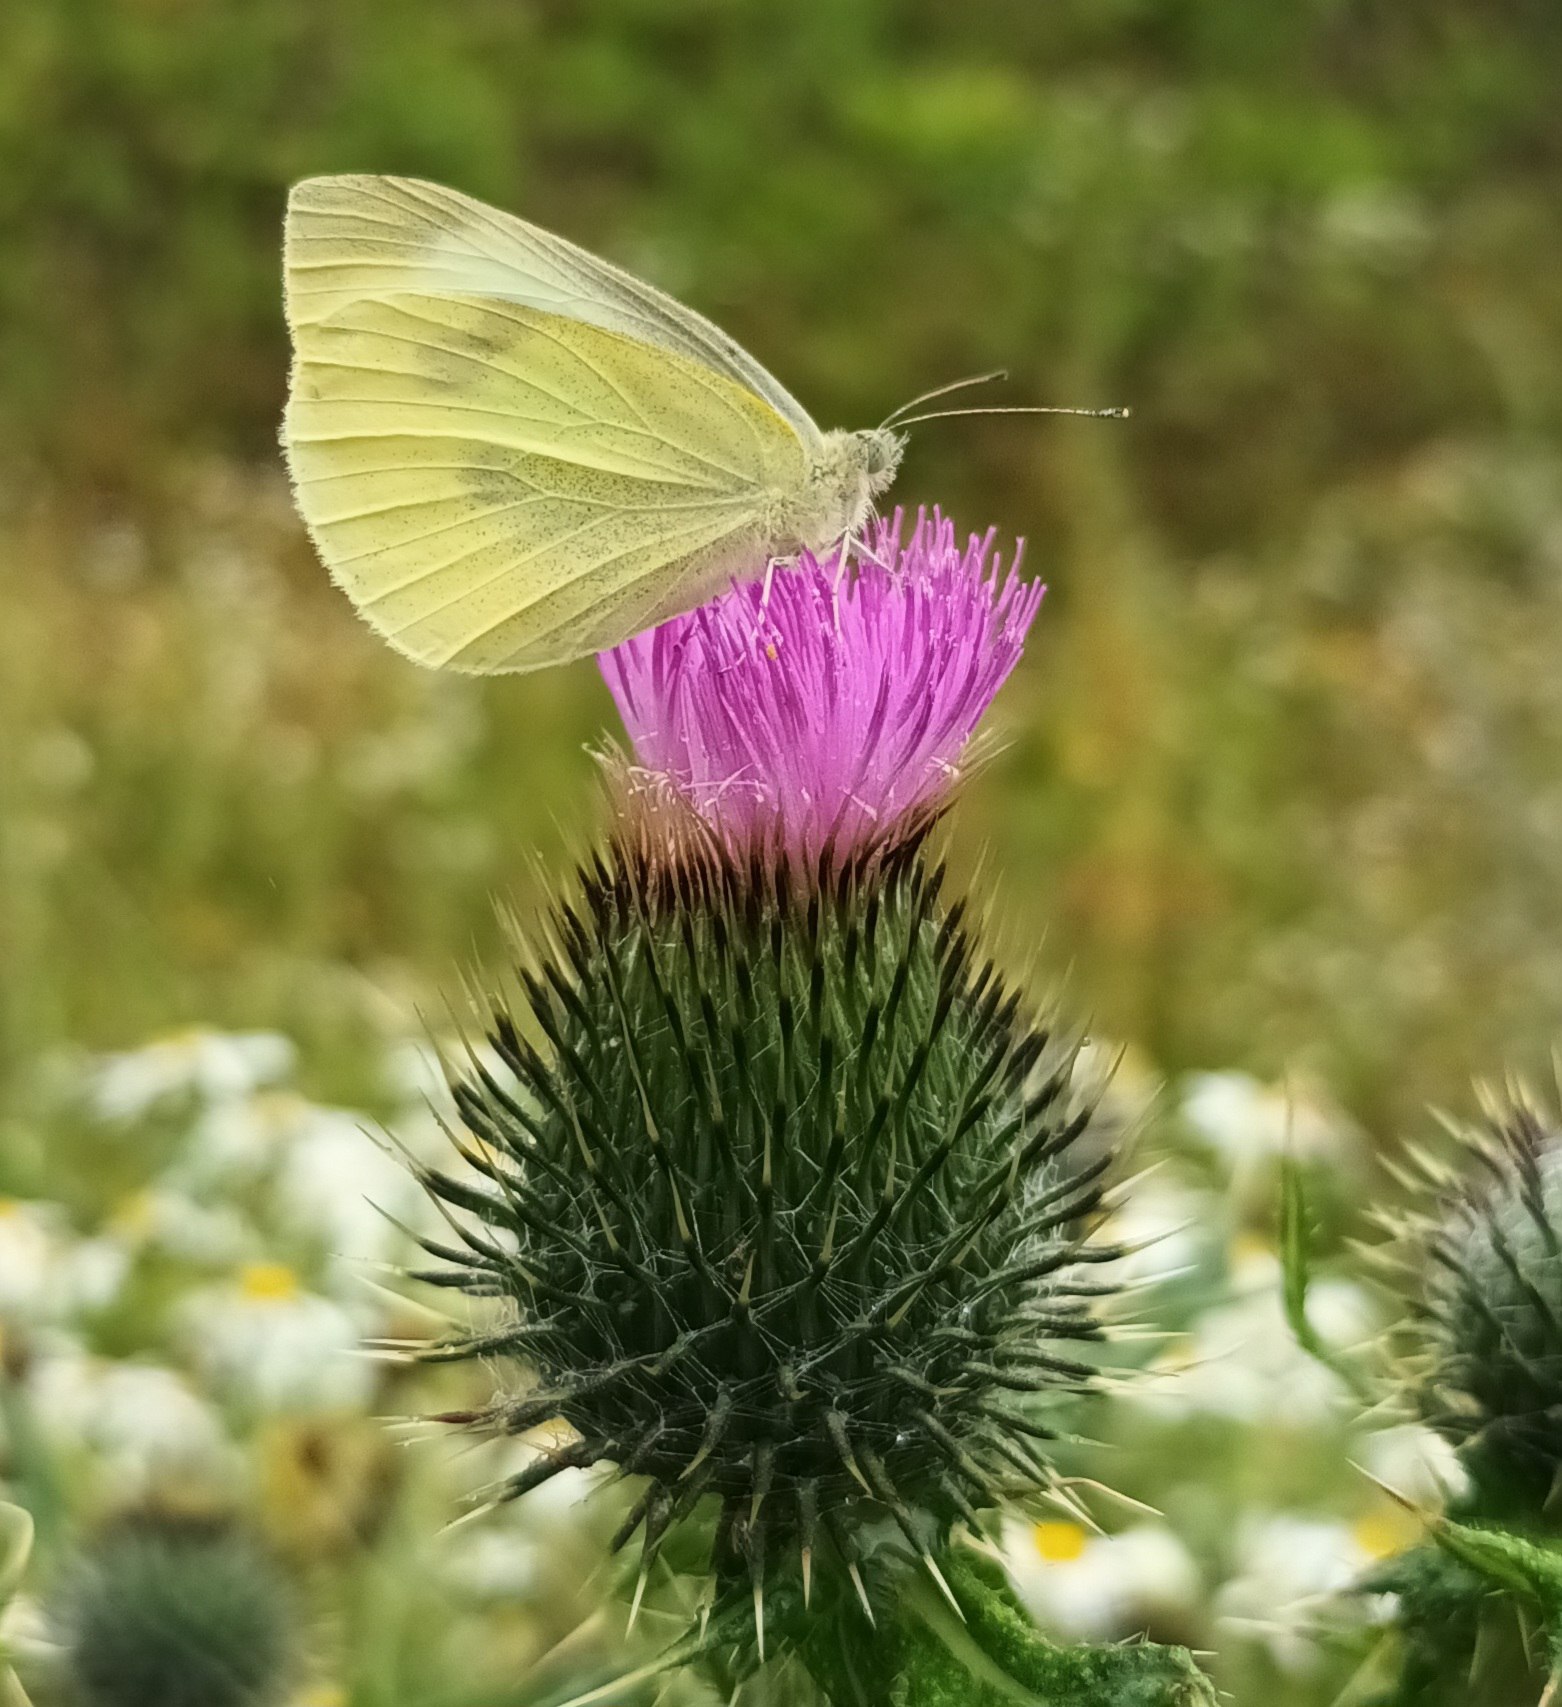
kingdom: Animalia
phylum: Arthropoda
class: Insecta
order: Lepidoptera
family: Pieridae
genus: Pieris
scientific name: Pieris brassicae
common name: Stor kålsommerfugl
